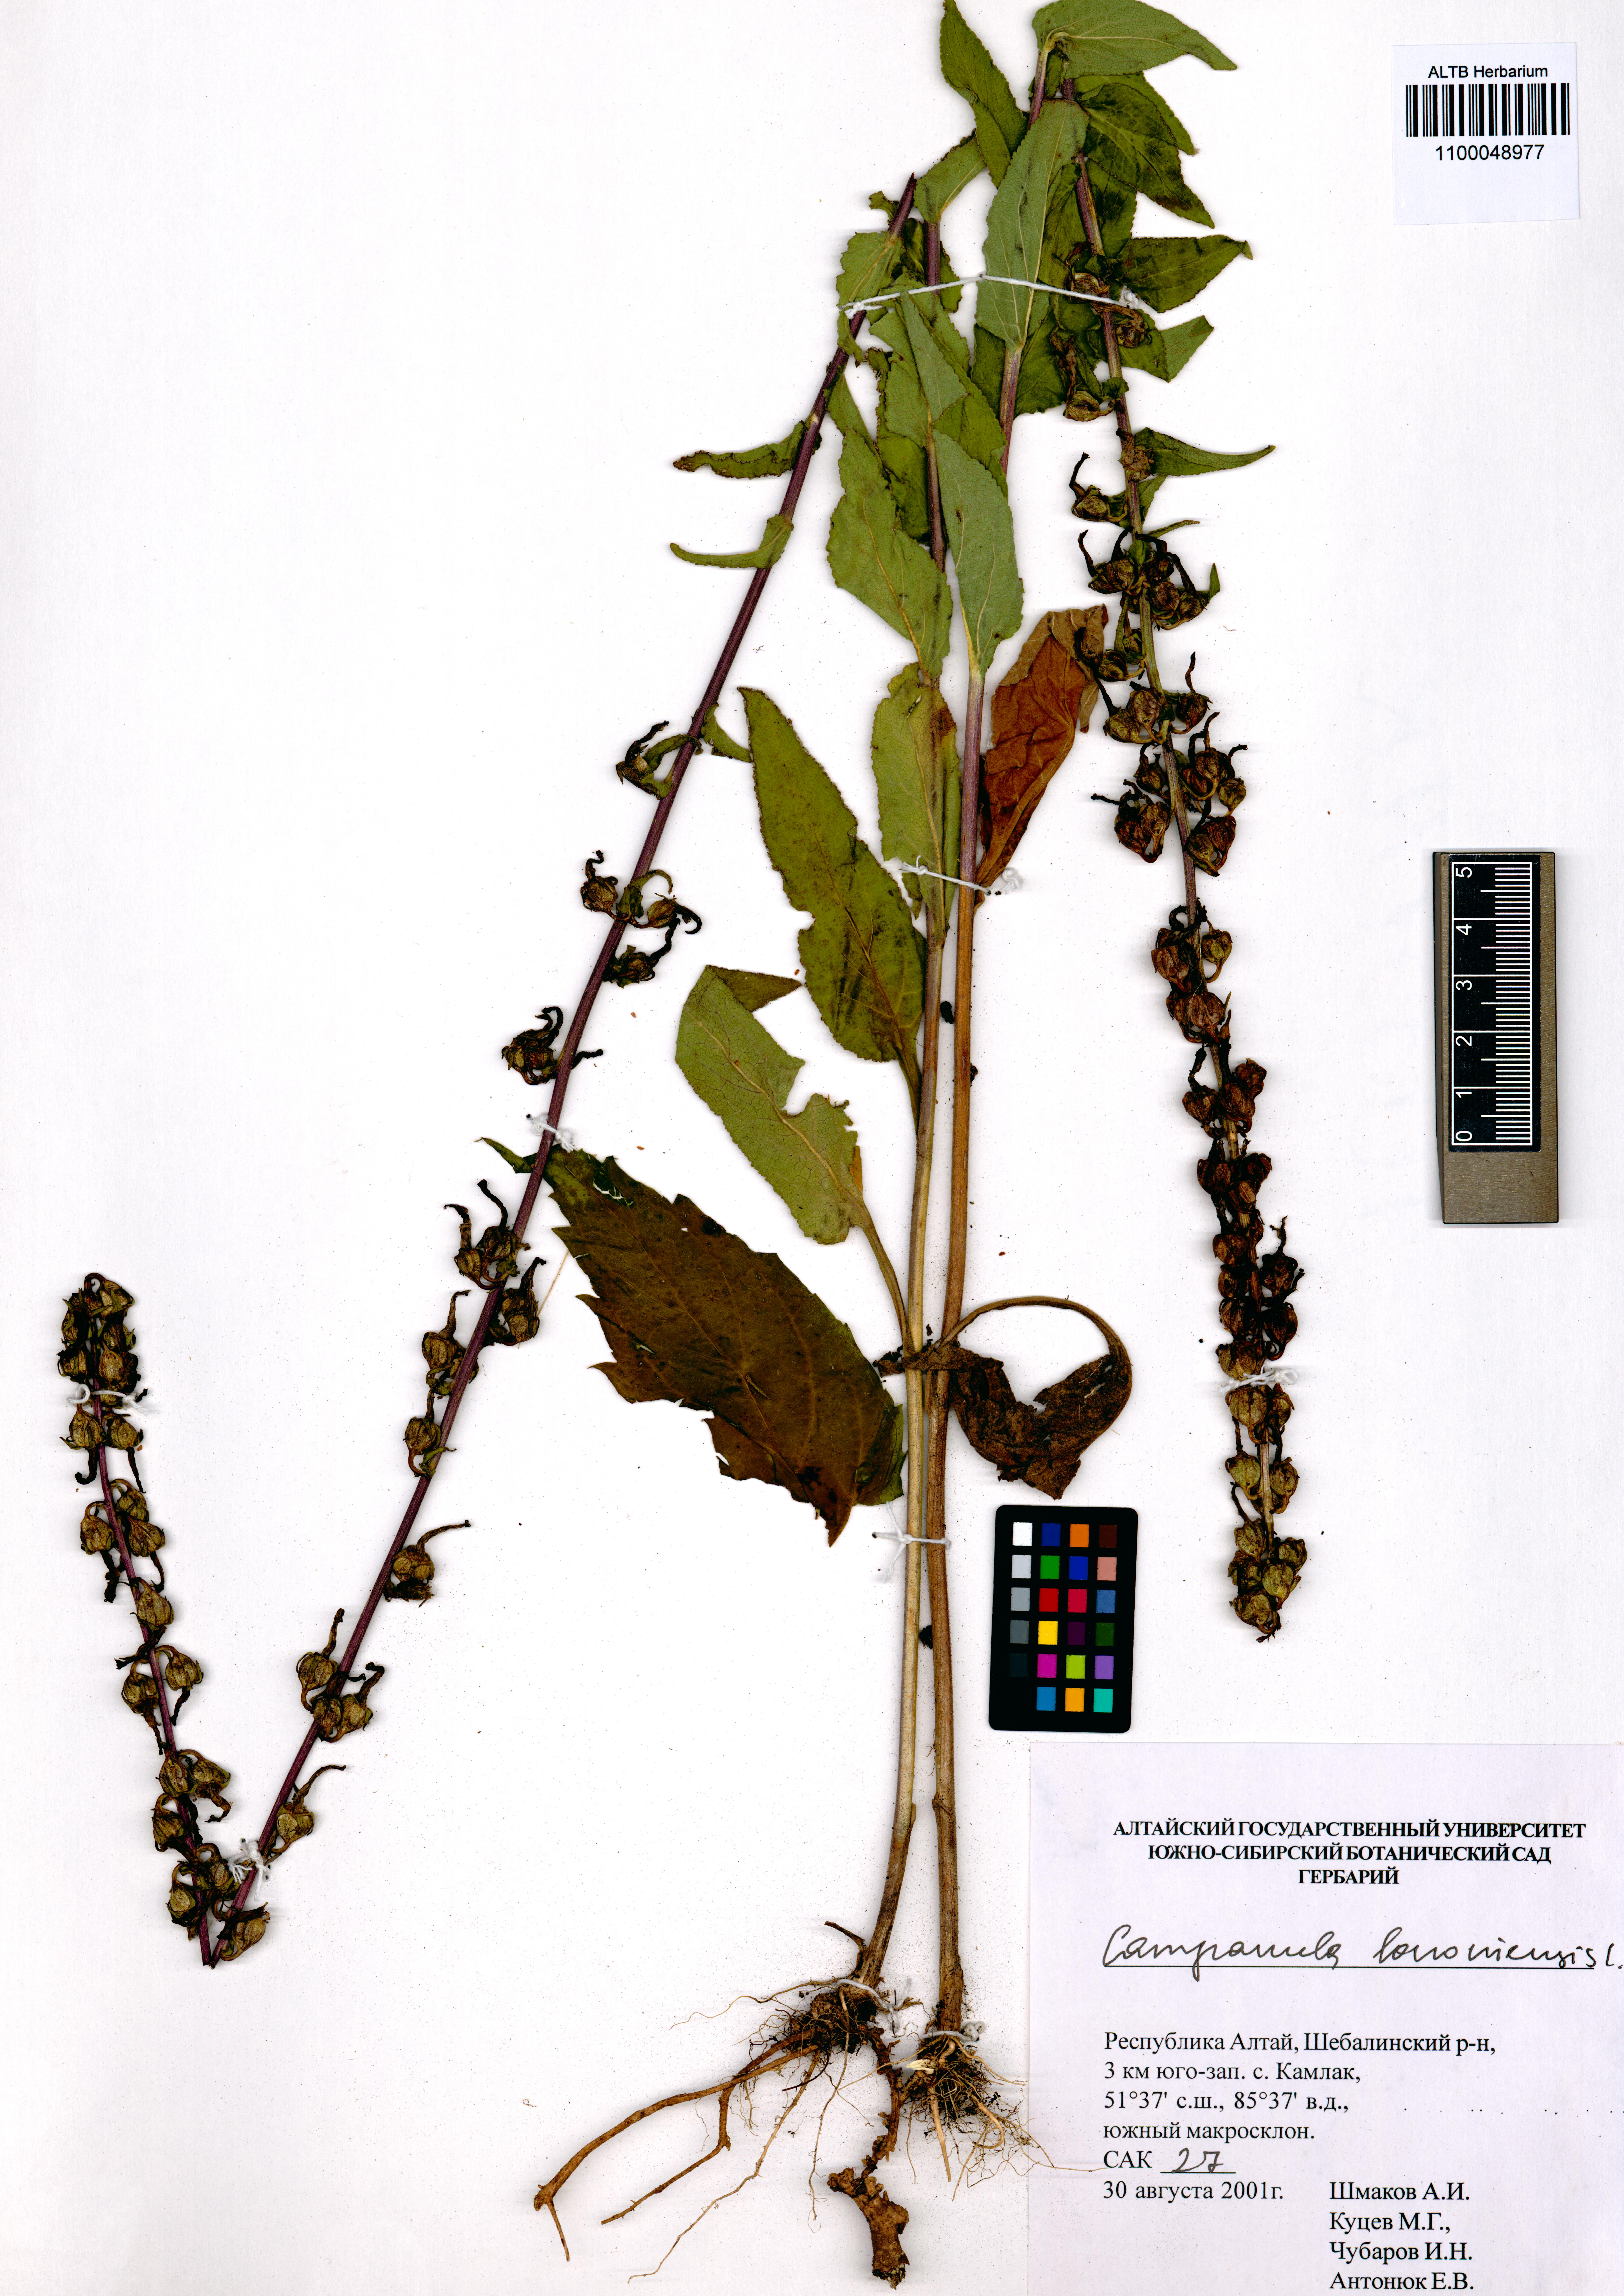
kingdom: Plantae
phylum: Tracheophyta
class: Magnoliopsida
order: Asterales
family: Campanulaceae
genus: Campanula
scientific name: Campanula bononiensis
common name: Pale bellflower
